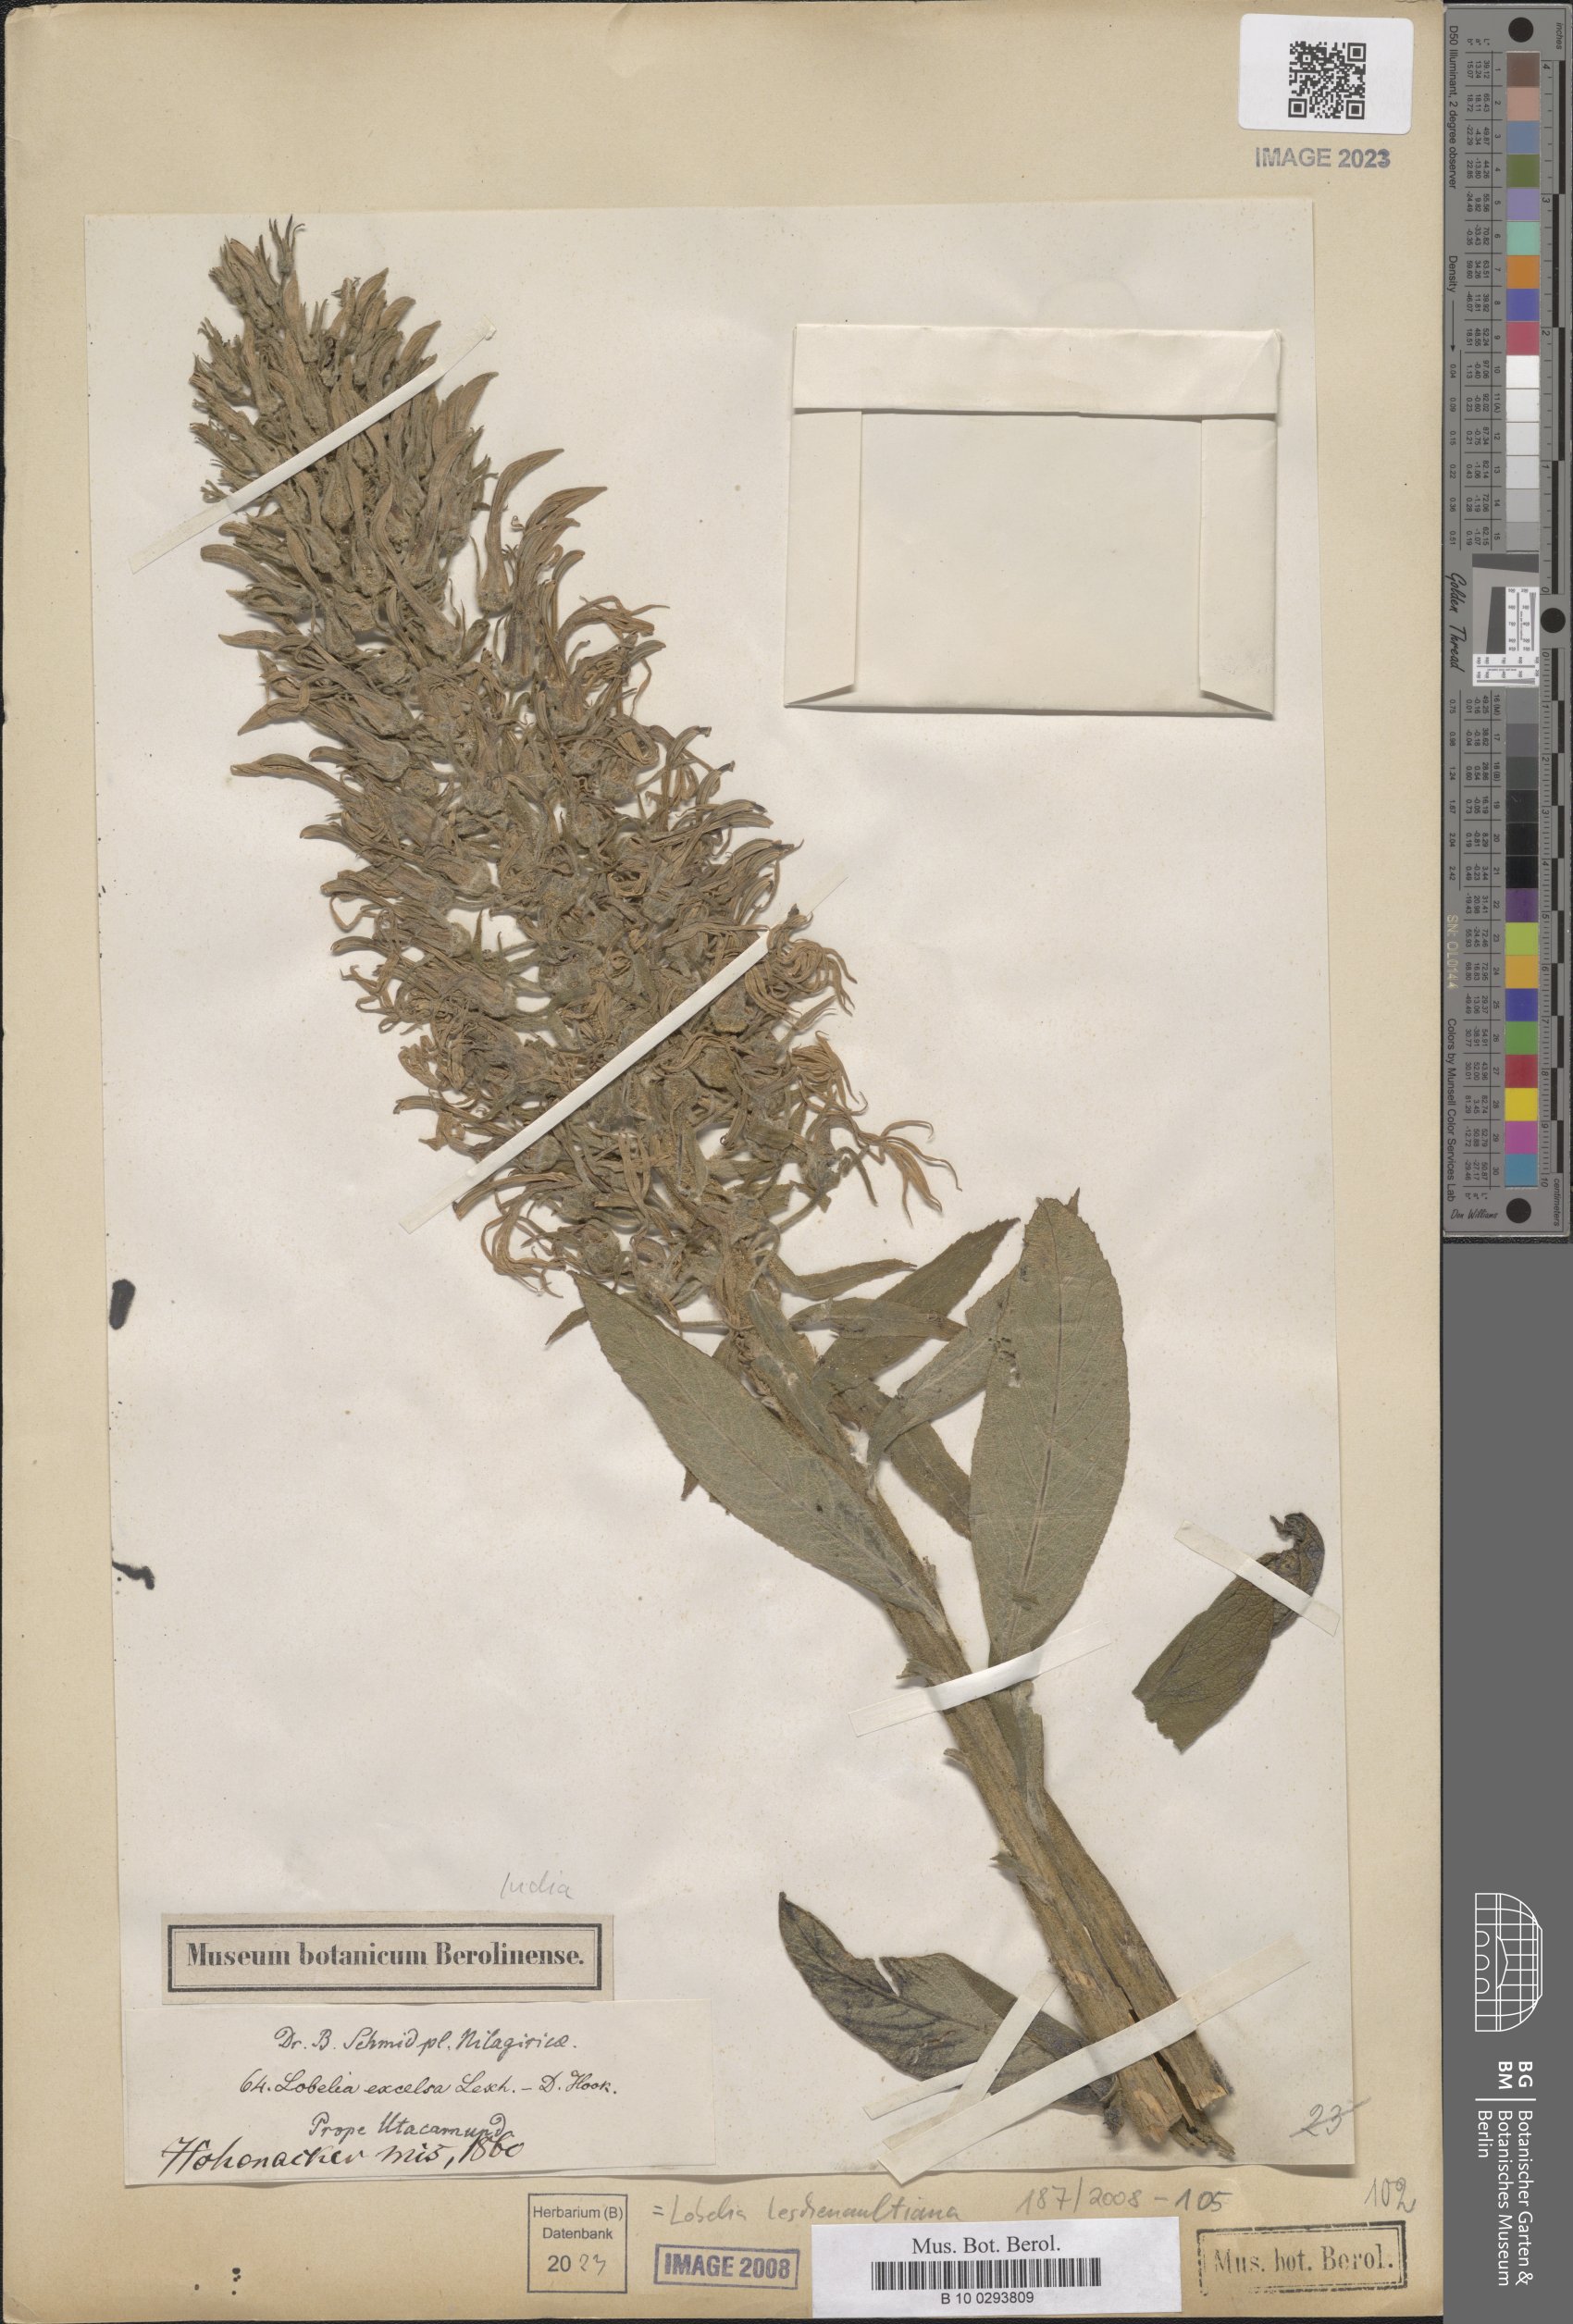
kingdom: Plantae
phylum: Tracheophyta
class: Magnoliopsida
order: Asterales
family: Campanulaceae
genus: Lobelia
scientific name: Lobelia leschenaultiana
